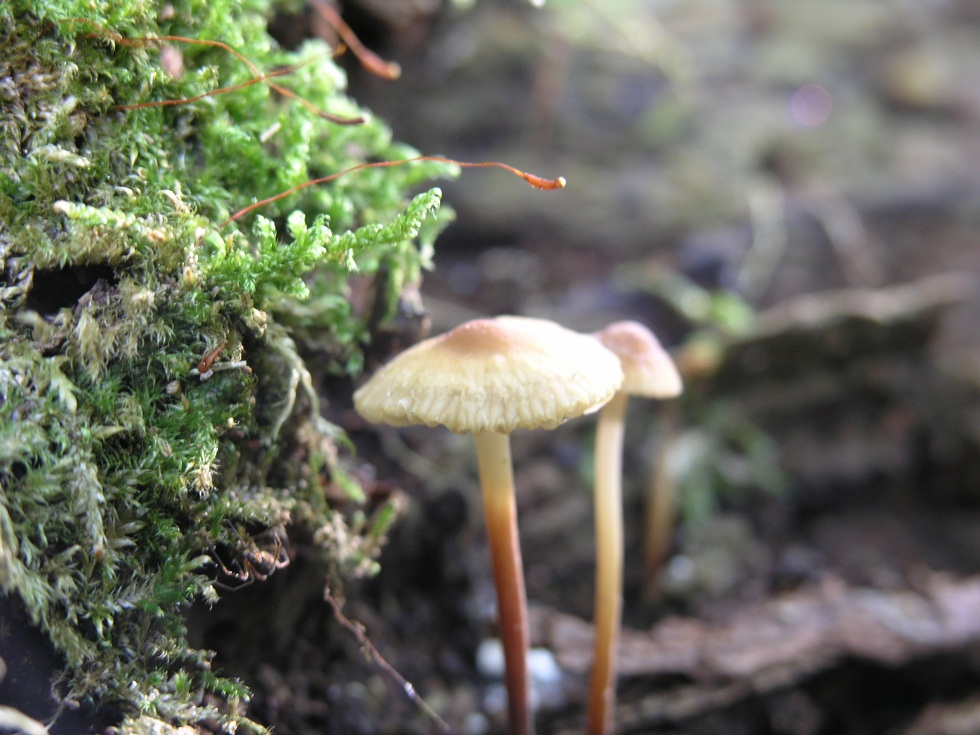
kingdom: Fungi
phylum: Basidiomycota
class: Agaricomycetes
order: Agaricales
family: Marasmiaceae
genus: Marasmius
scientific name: Marasmius torquescens
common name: filtfodet bruskhat
